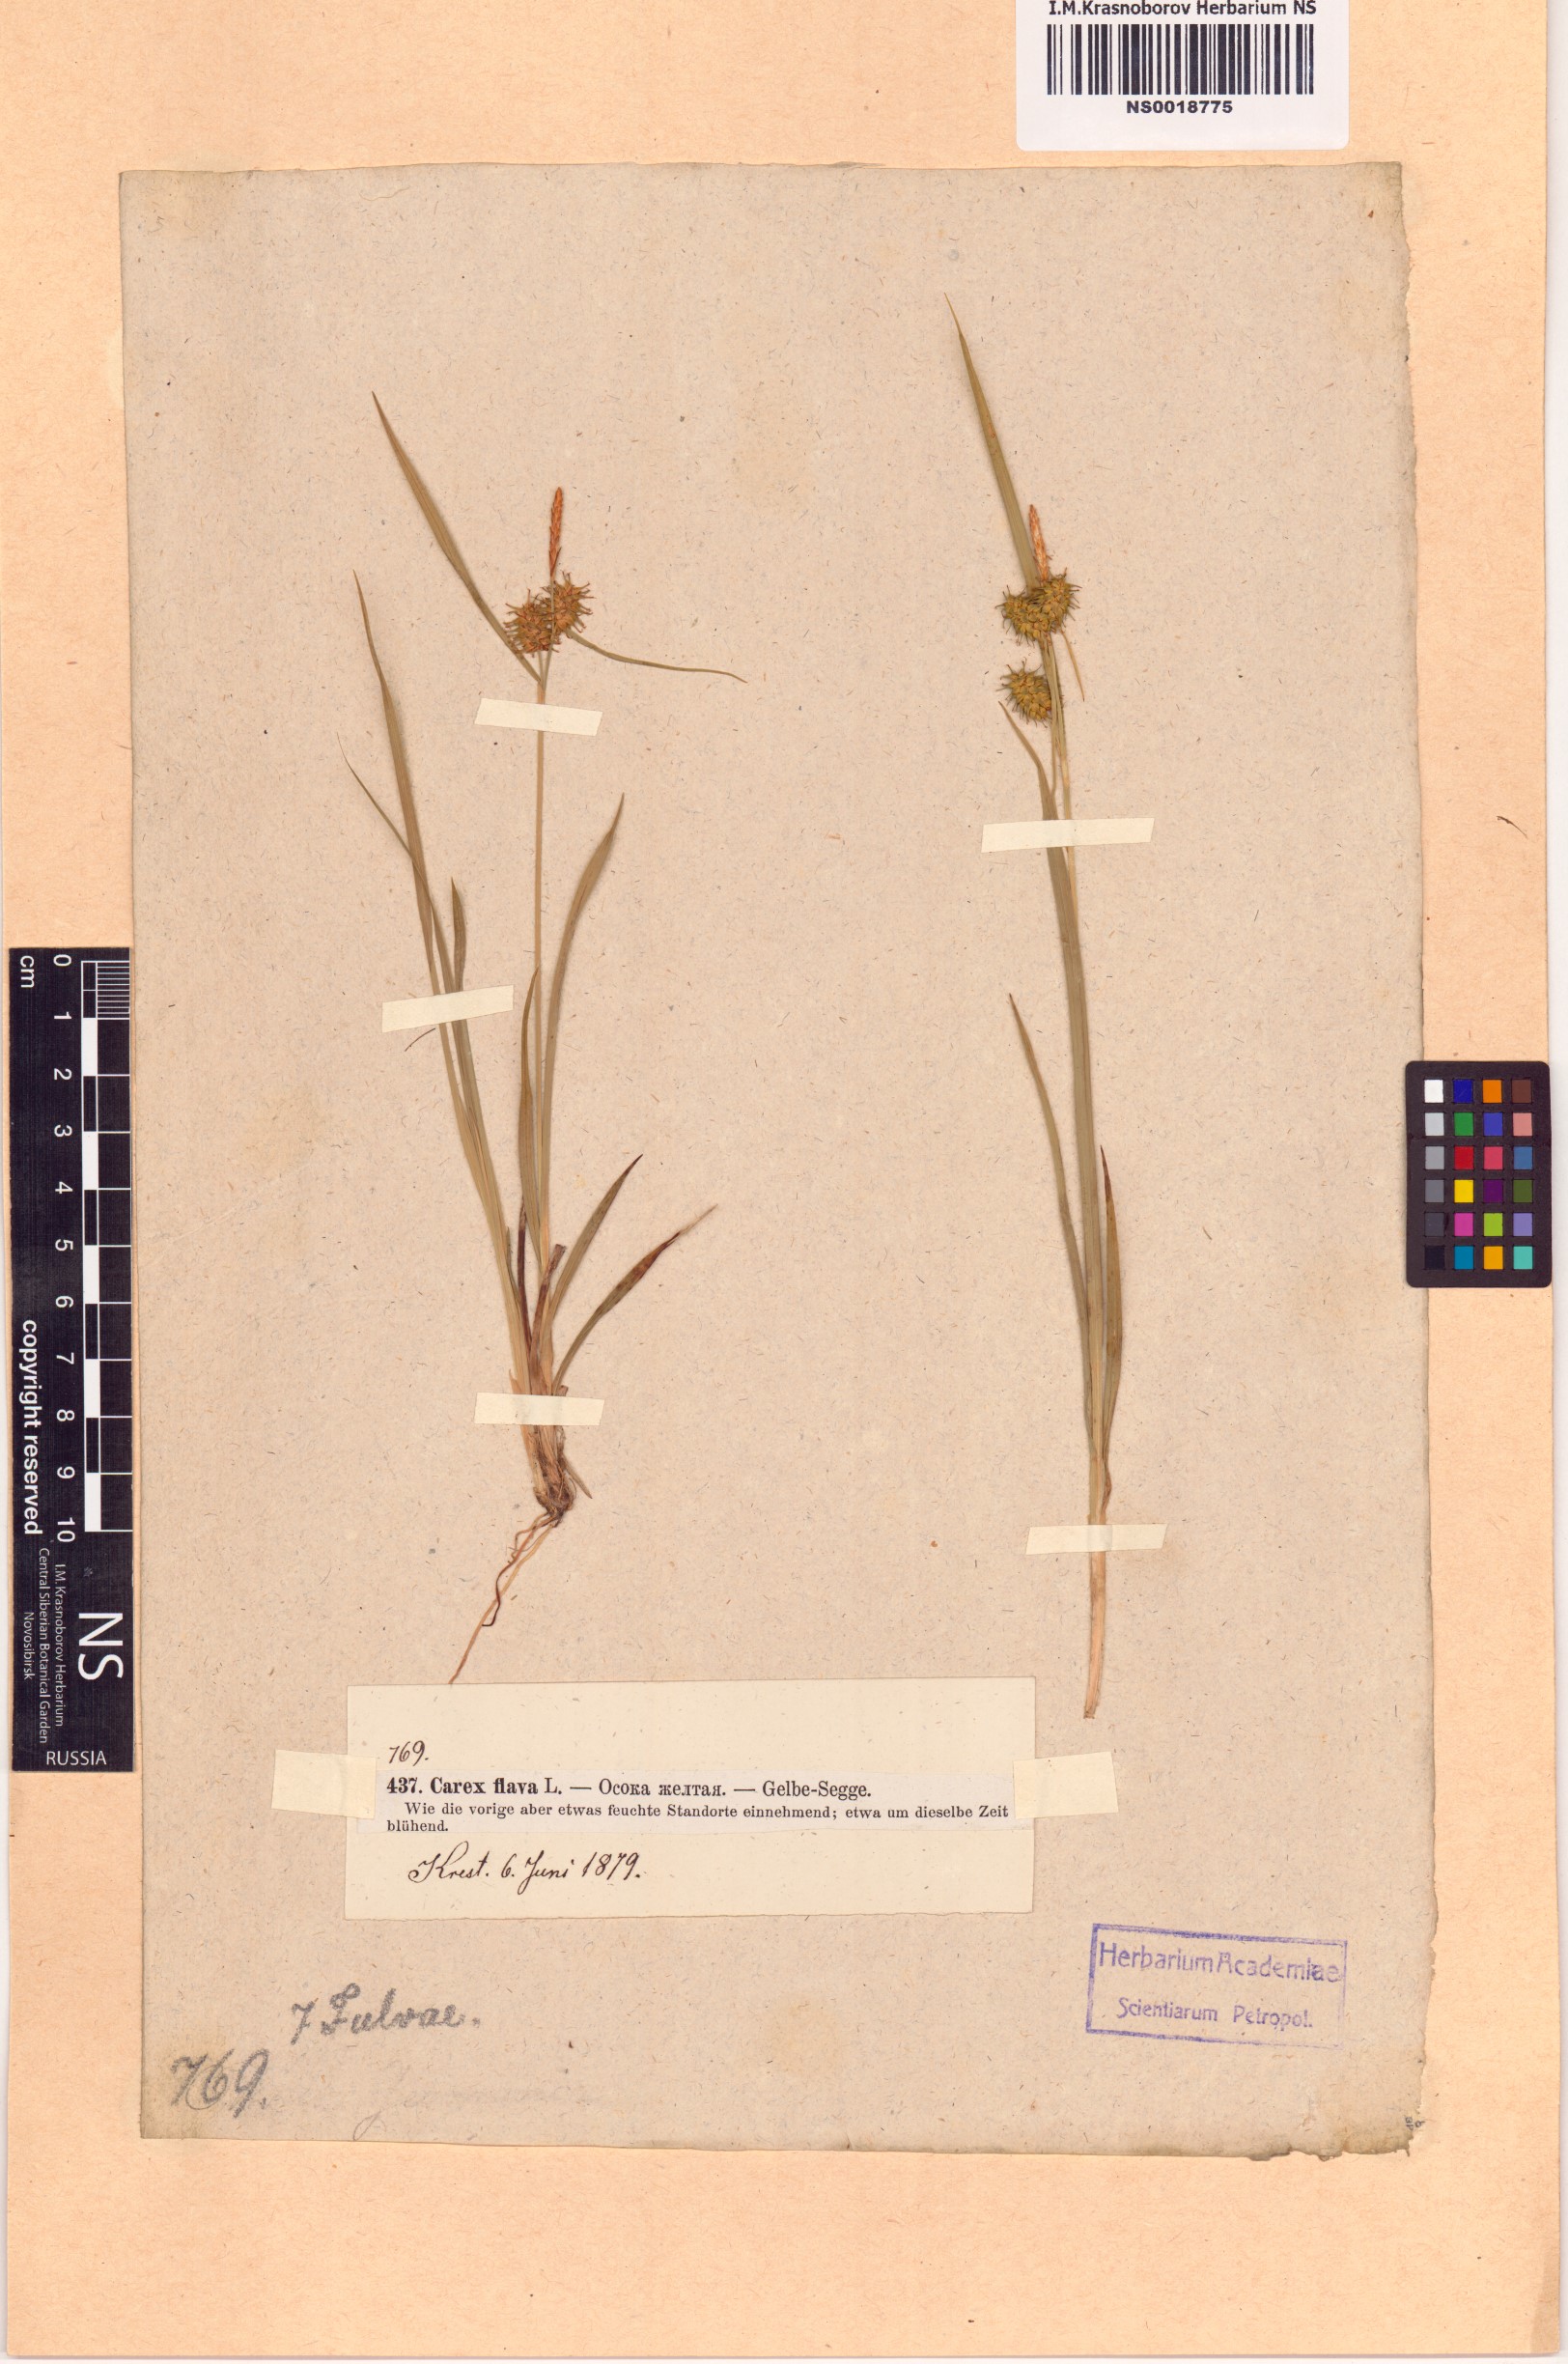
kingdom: Plantae
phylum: Tracheophyta
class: Liliopsida
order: Poales
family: Cyperaceae
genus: Carex
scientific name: Carex flava
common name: Large yellow-sedge
